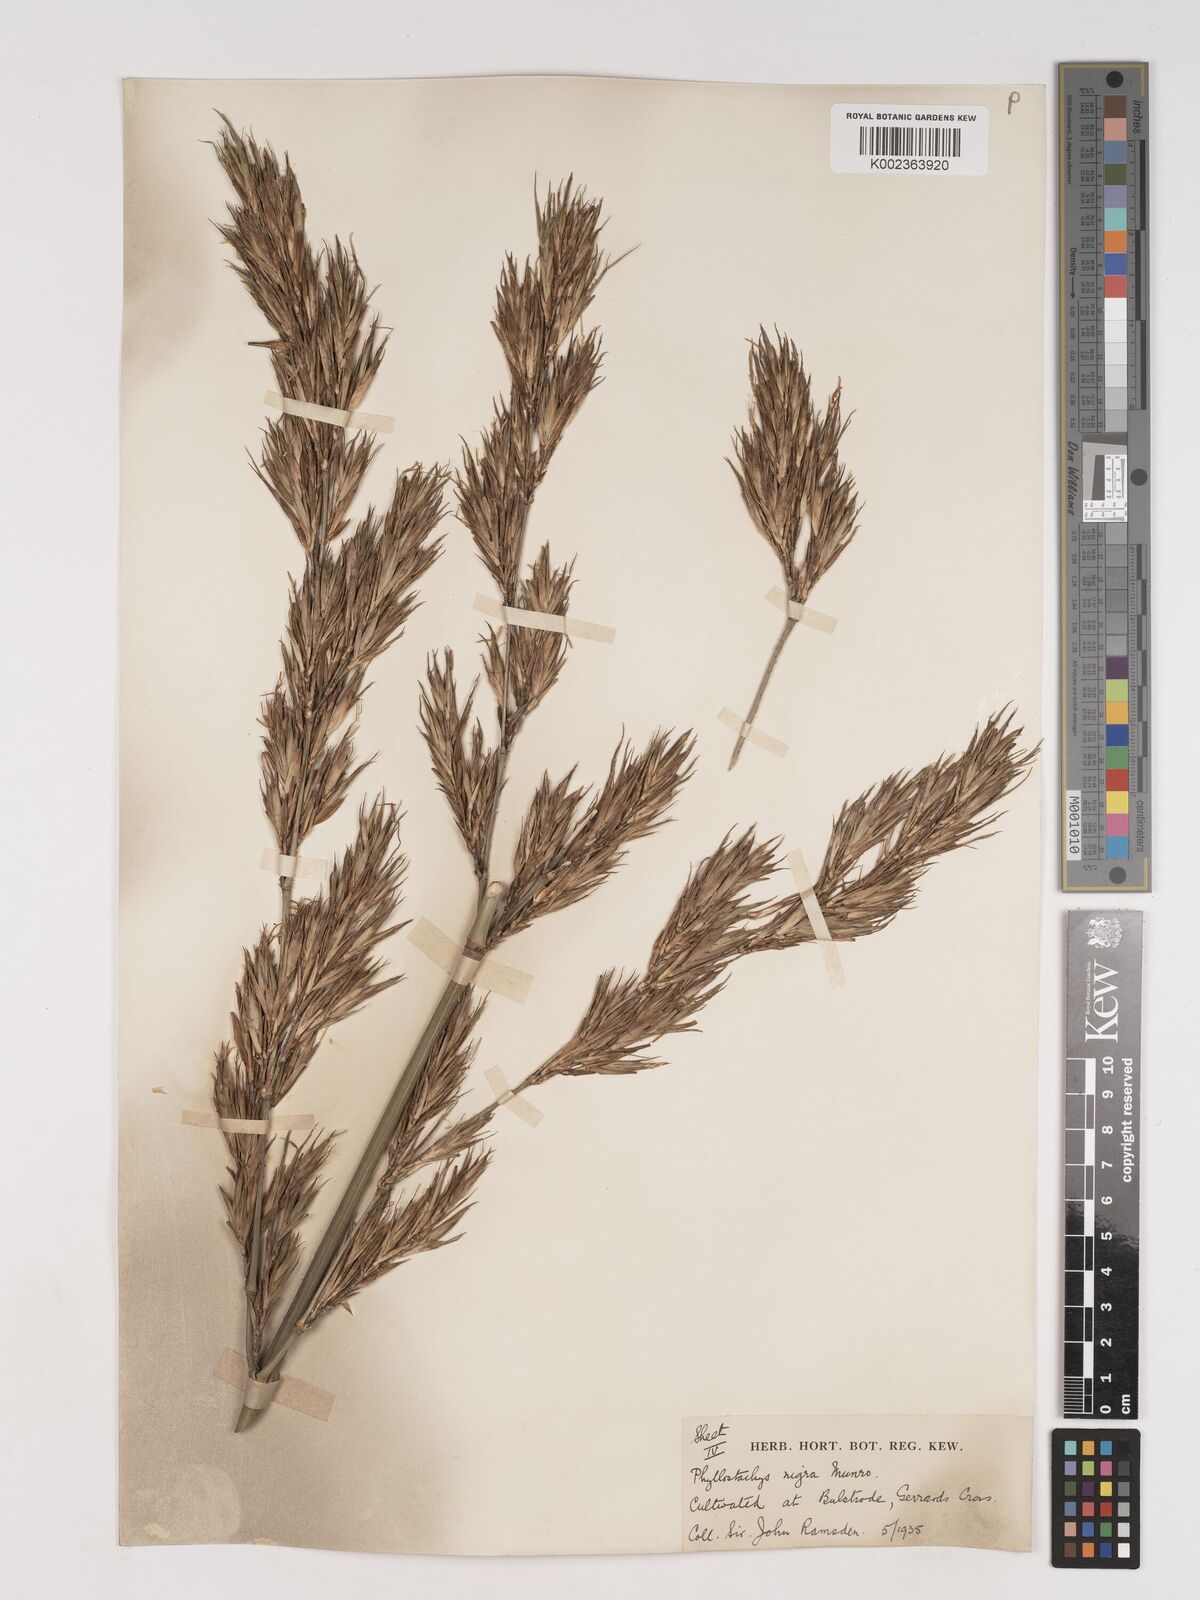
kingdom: Plantae
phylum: Tracheophyta
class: Liliopsida
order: Poales
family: Poaceae
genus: Phyllostachys
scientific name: Phyllostachys nigra
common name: Black bamboo
